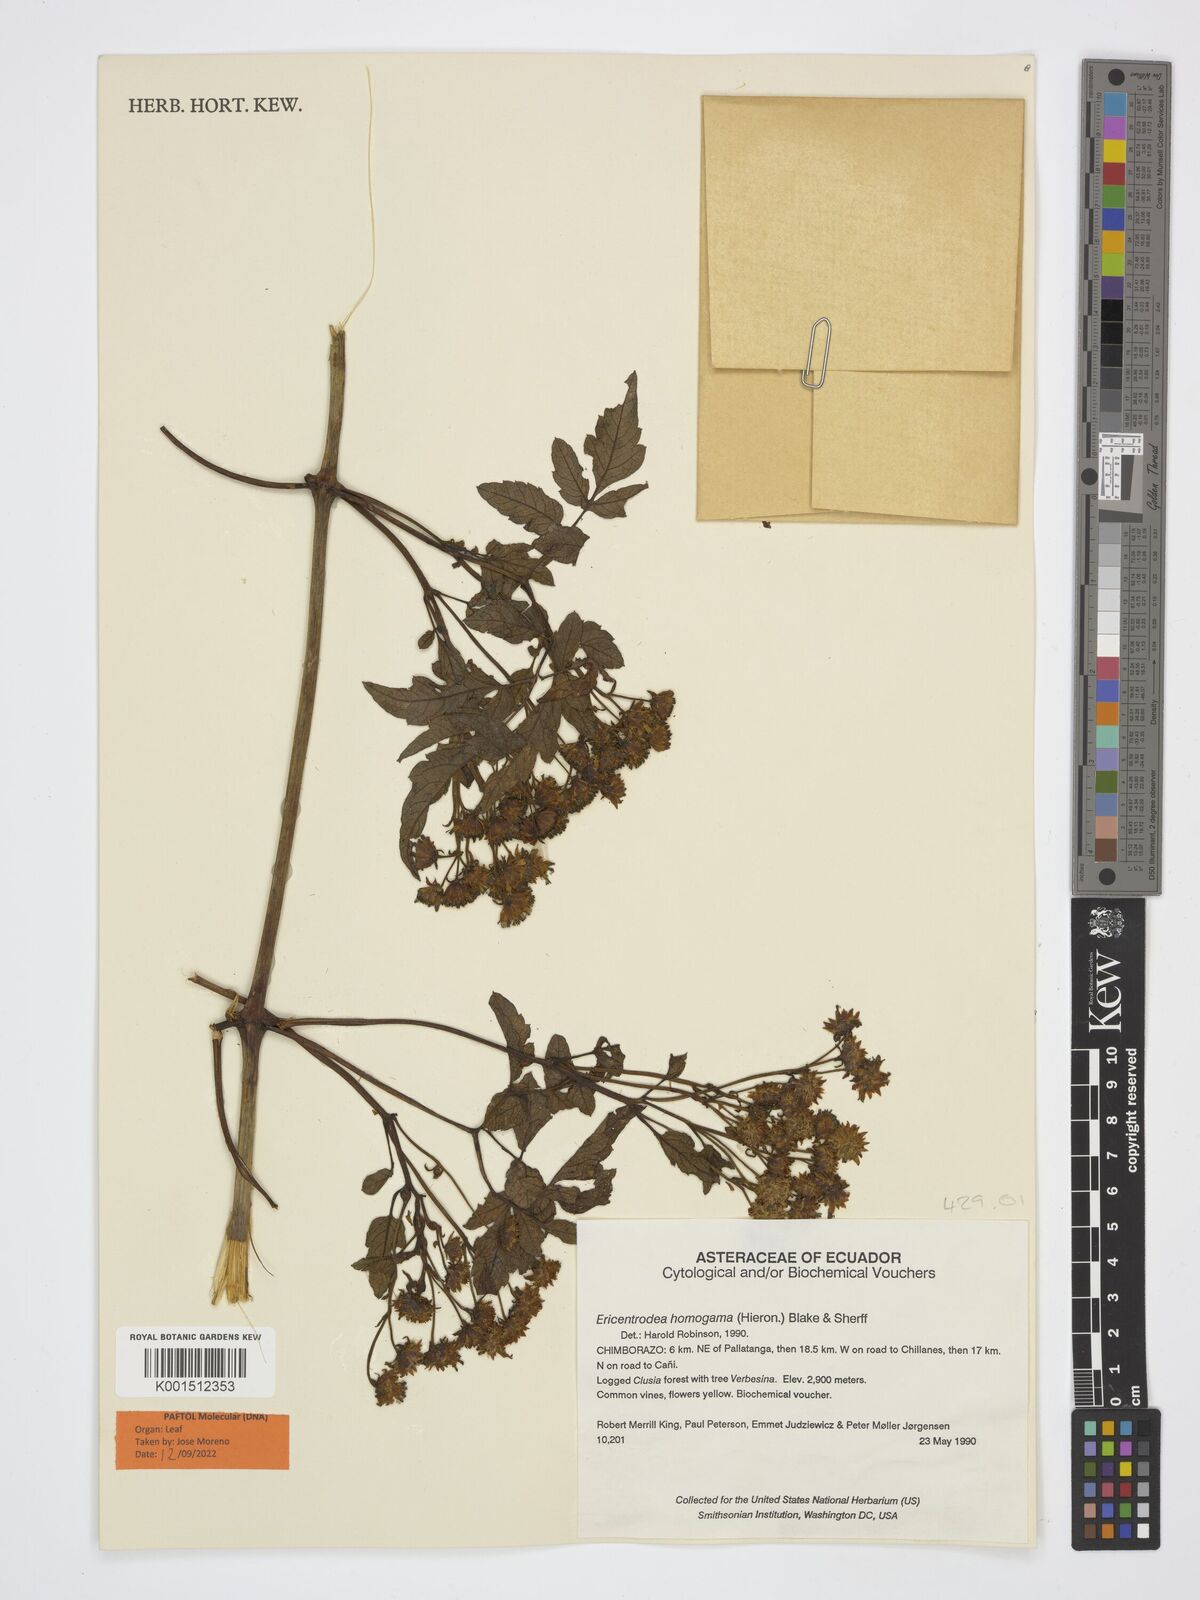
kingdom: Plantae
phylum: Tracheophyta
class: Magnoliopsida
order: Asterales
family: Asteraceae
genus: Ericentrodea
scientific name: Ericentrodea homogama
